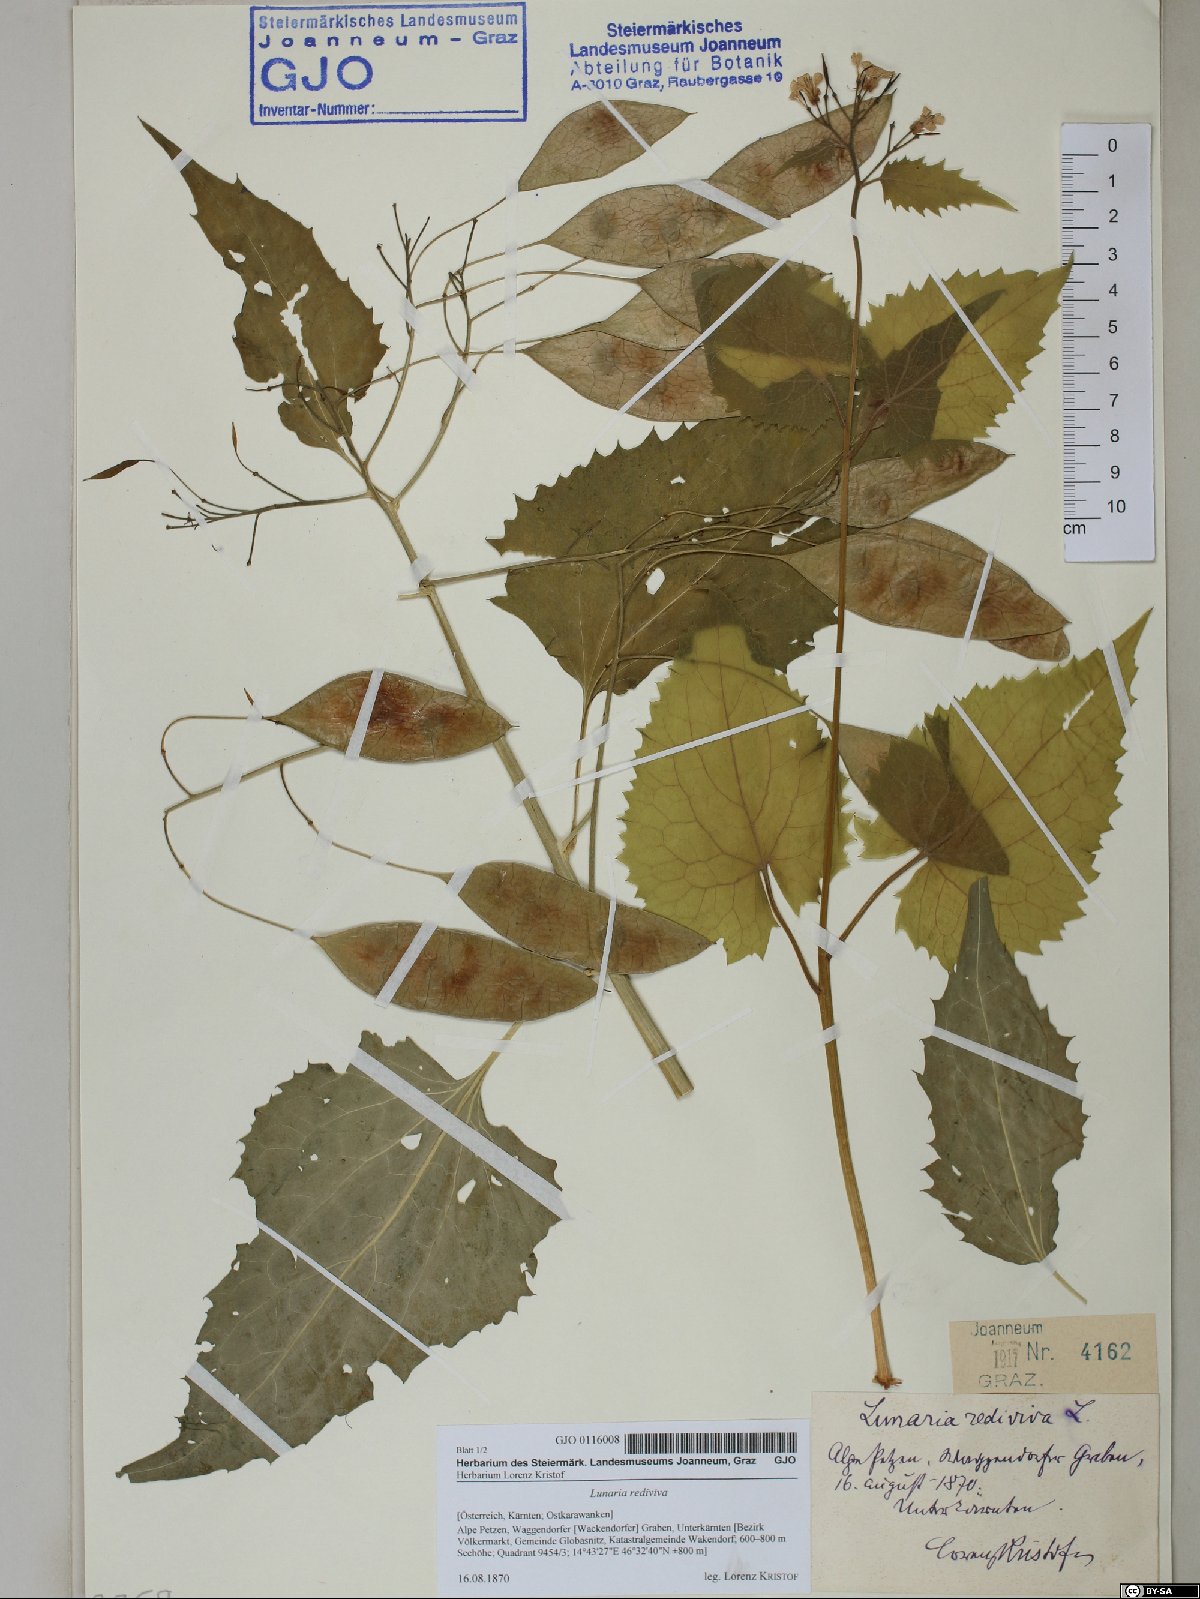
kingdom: Plantae
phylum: Tracheophyta
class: Magnoliopsida
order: Brassicales
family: Brassicaceae
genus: Lunaria
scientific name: Lunaria rediviva
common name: Perennial honesty
